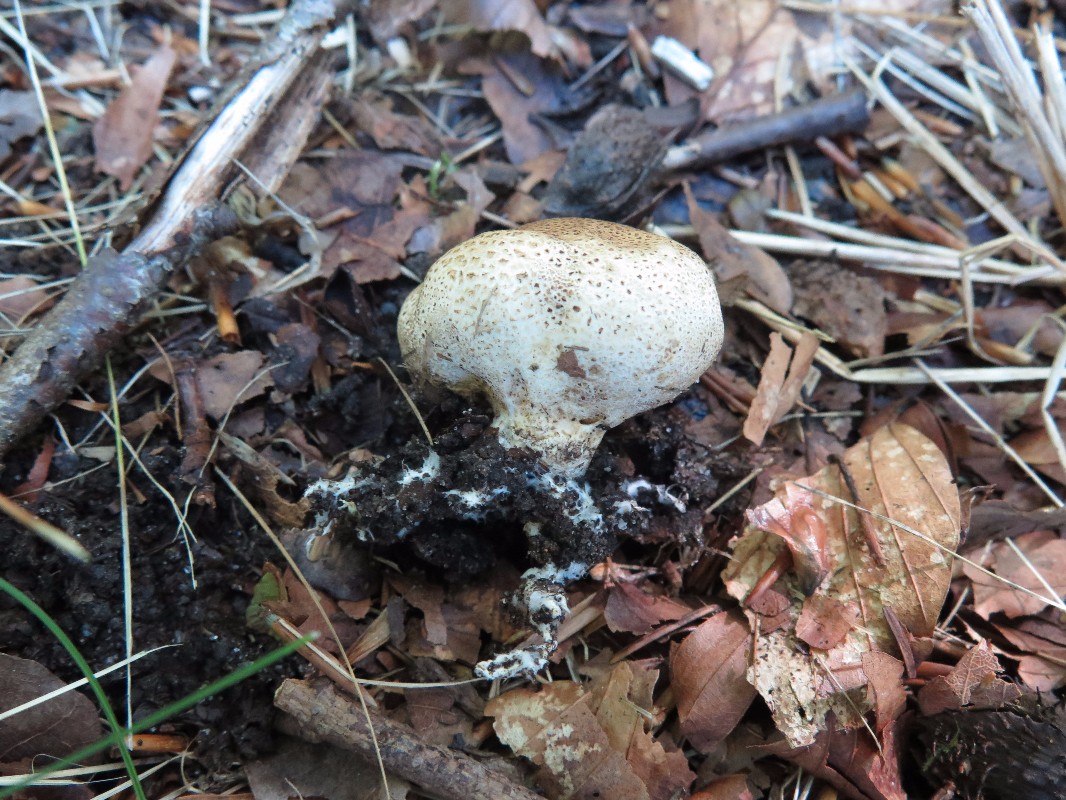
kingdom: Fungi
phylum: Basidiomycota
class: Agaricomycetes
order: Boletales
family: Sclerodermataceae
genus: Scleroderma
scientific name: Scleroderma verrucosum
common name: stilket bruskbold
